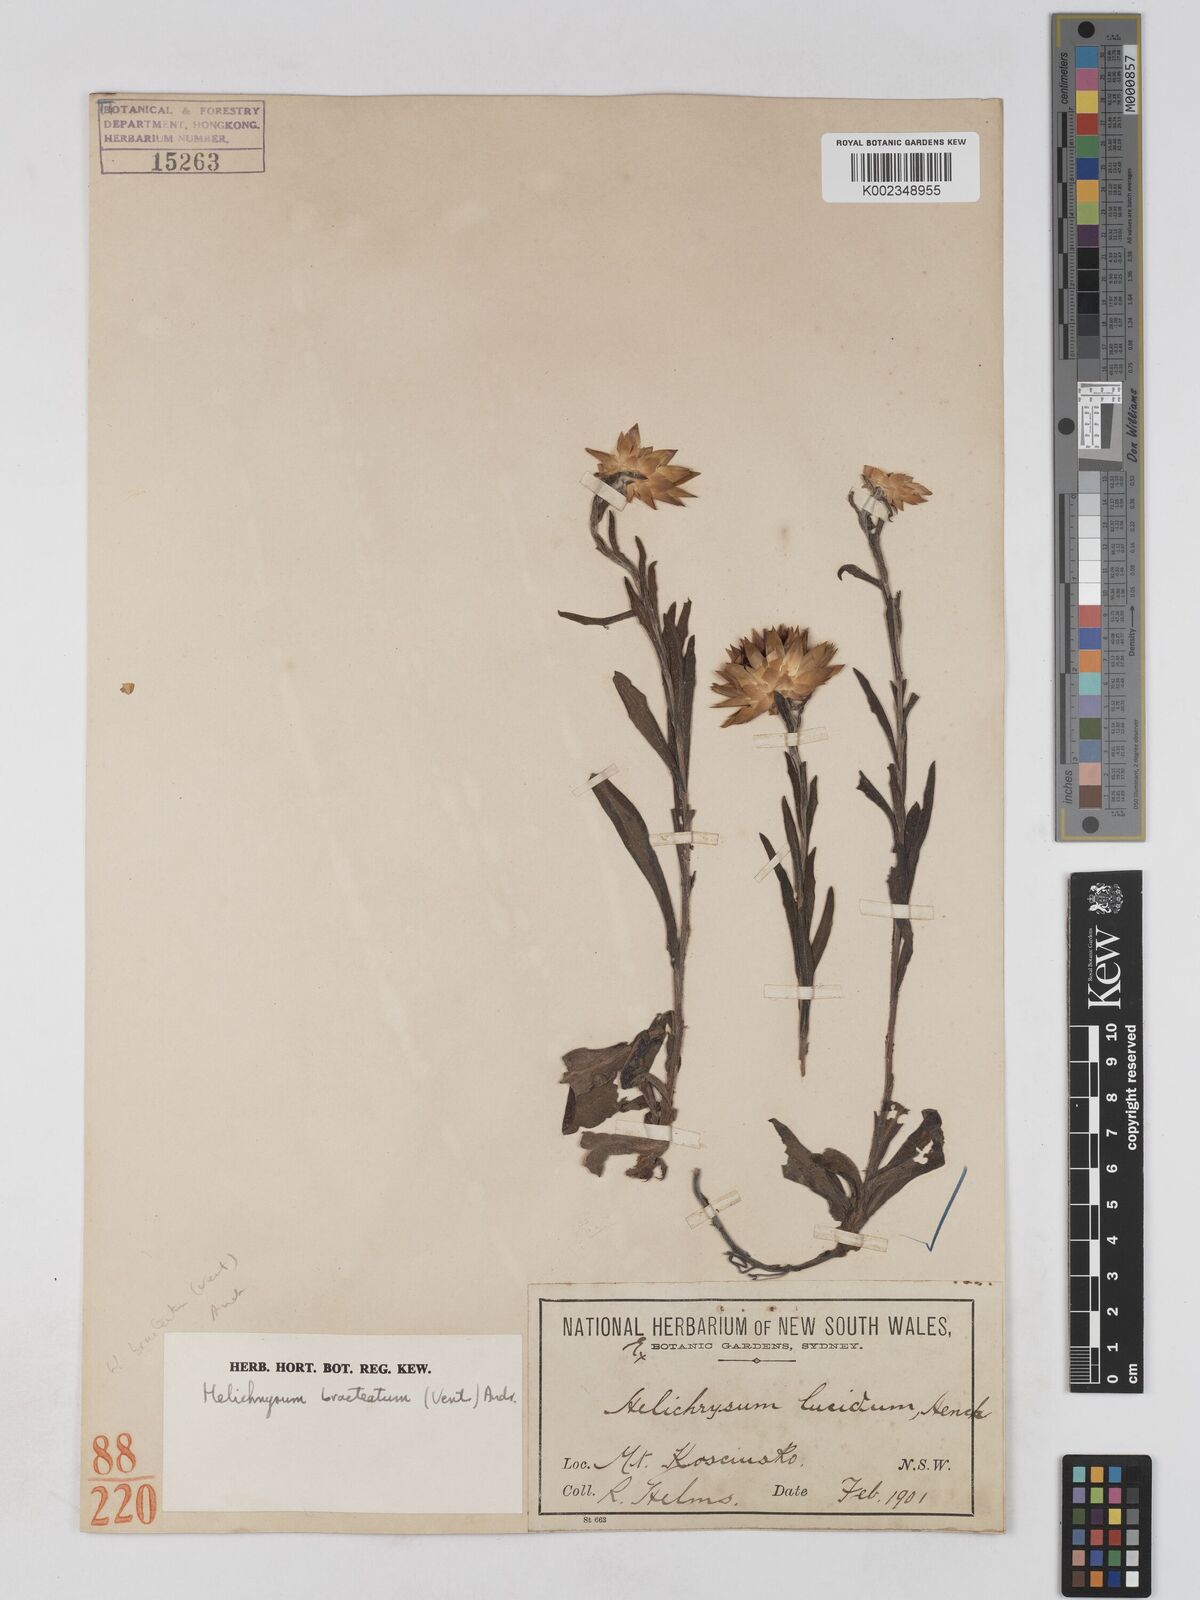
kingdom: Plantae
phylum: Tracheophyta
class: Magnoliopsida
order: Asterales
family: Asteraceae
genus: Xerochrysum
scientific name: Xerochrysum bracteatum
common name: Bracted strawflower
